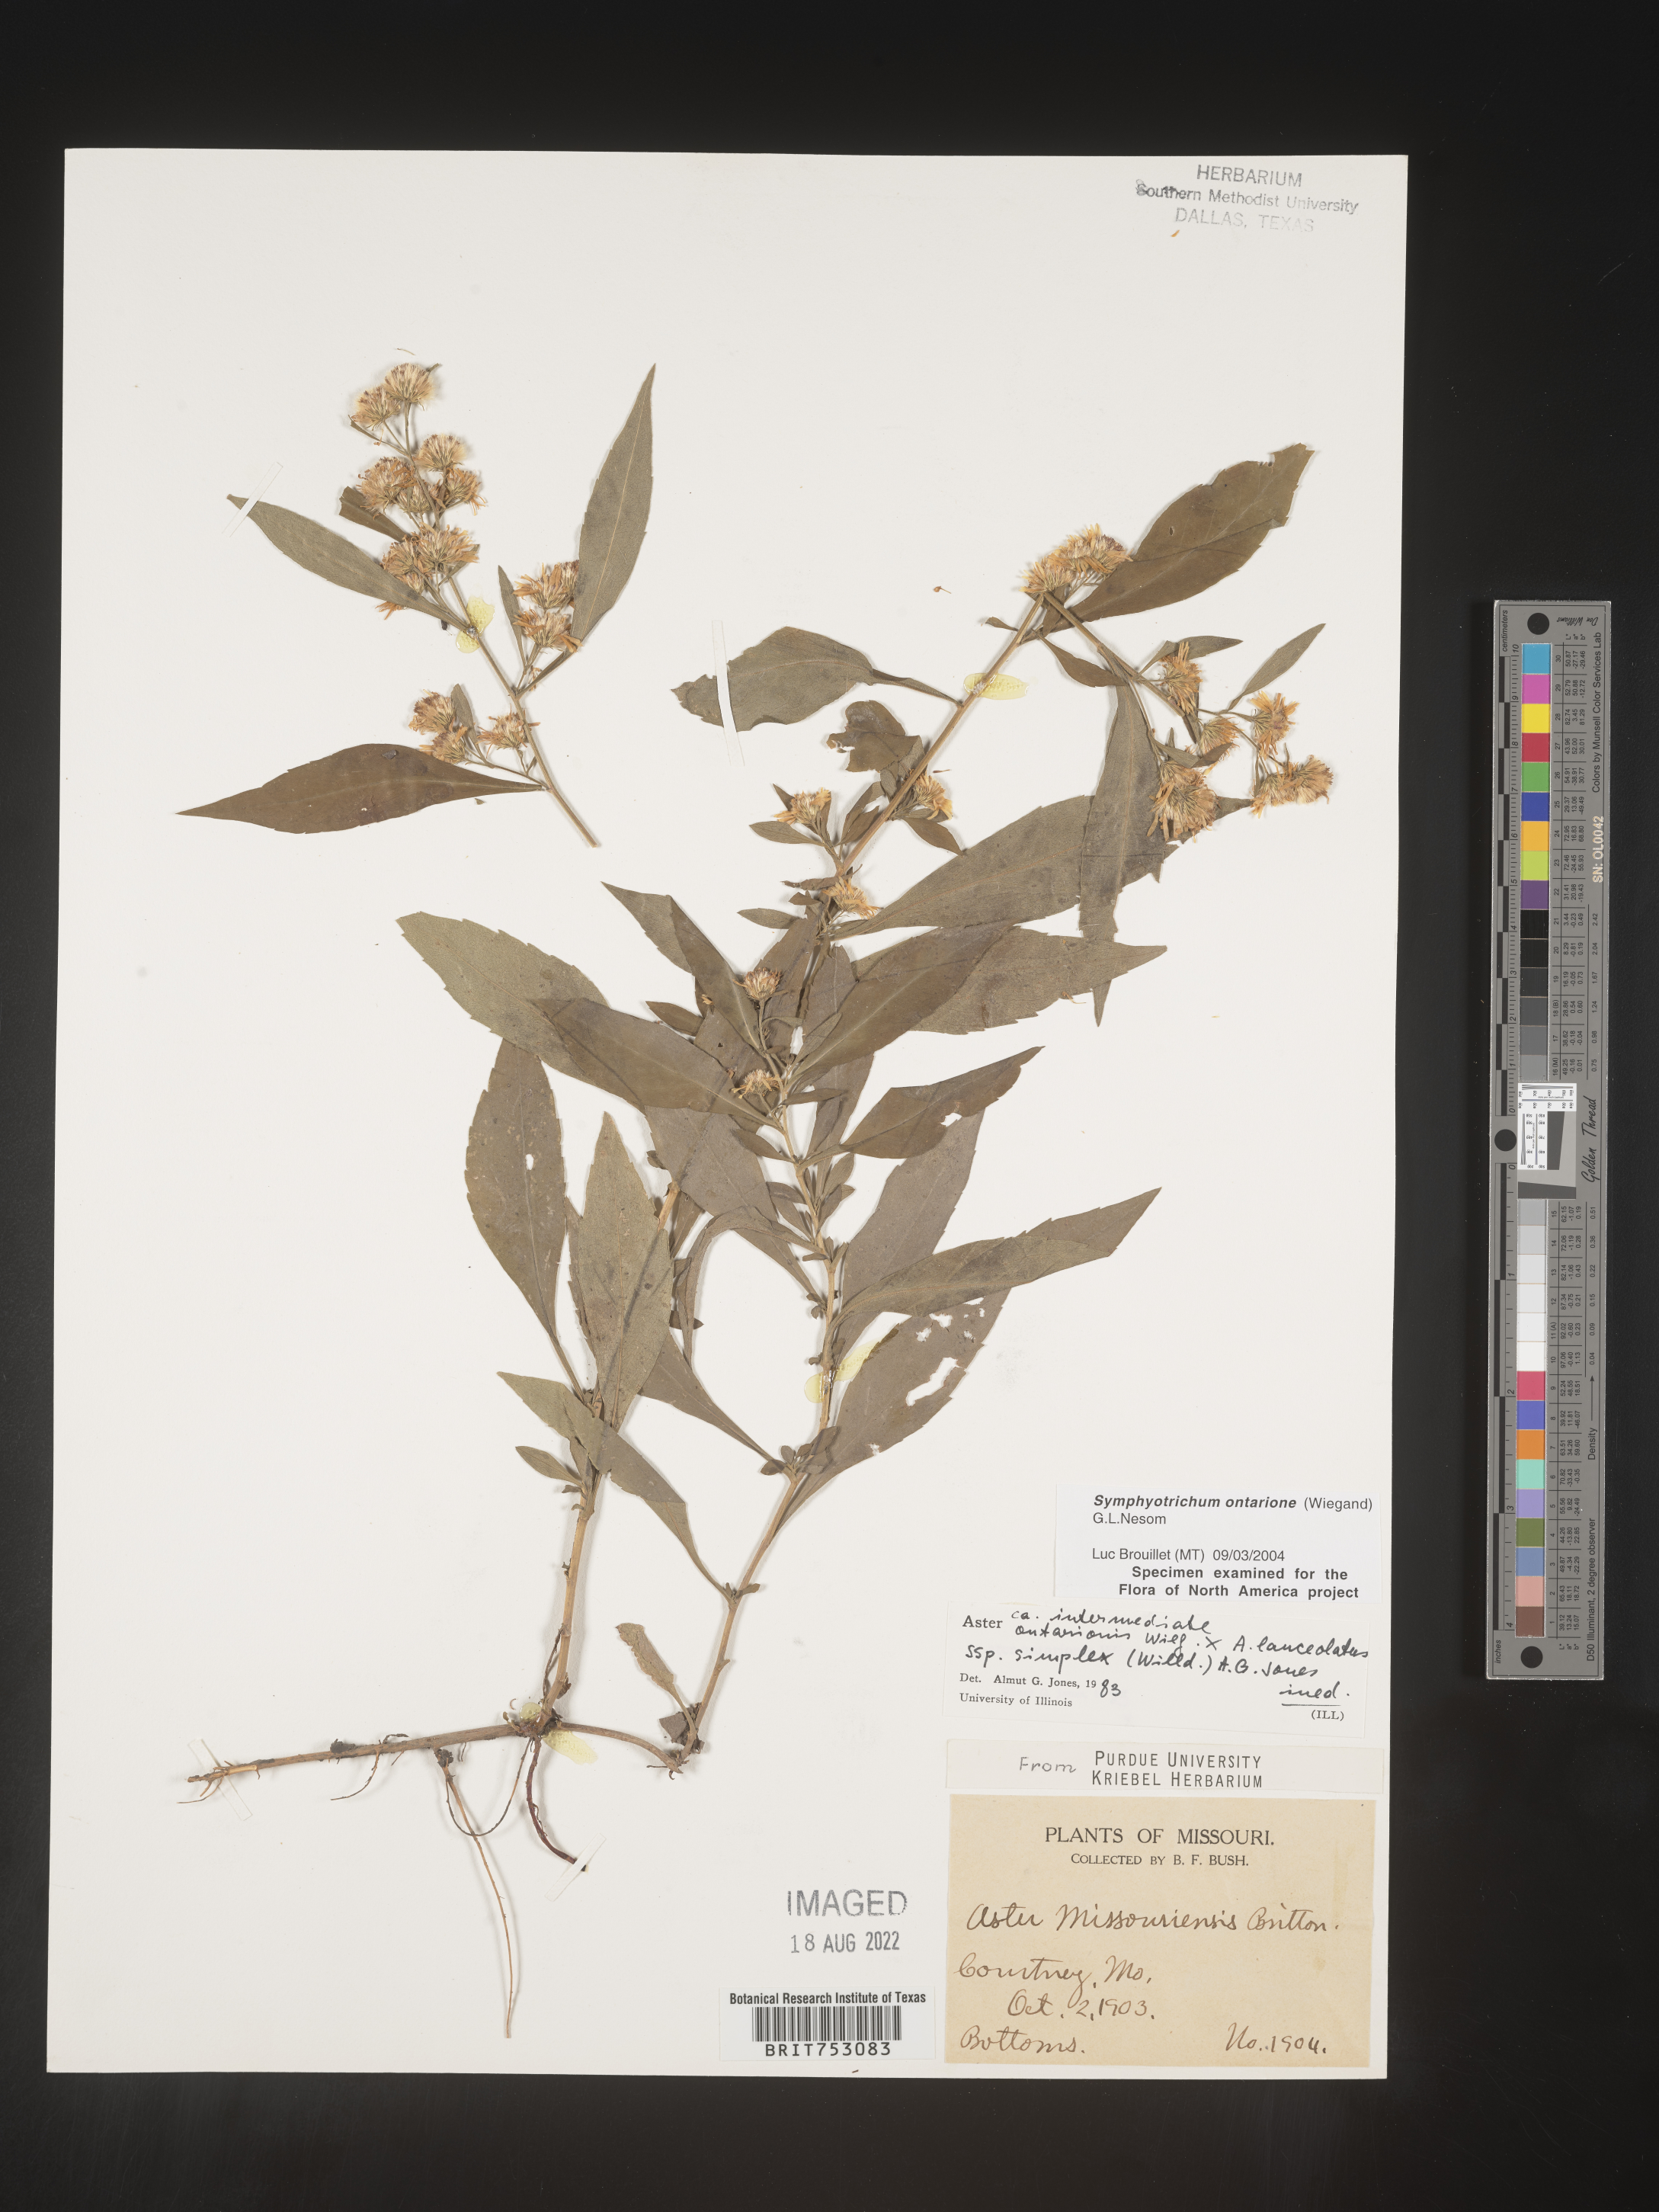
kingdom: Plantae
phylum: Tracheophyta
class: Magnoliopsida
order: Asterales
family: Asteraceae
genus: Symphyotrichum
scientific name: Symphyotrichum ontarionis
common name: Bottomland aster
